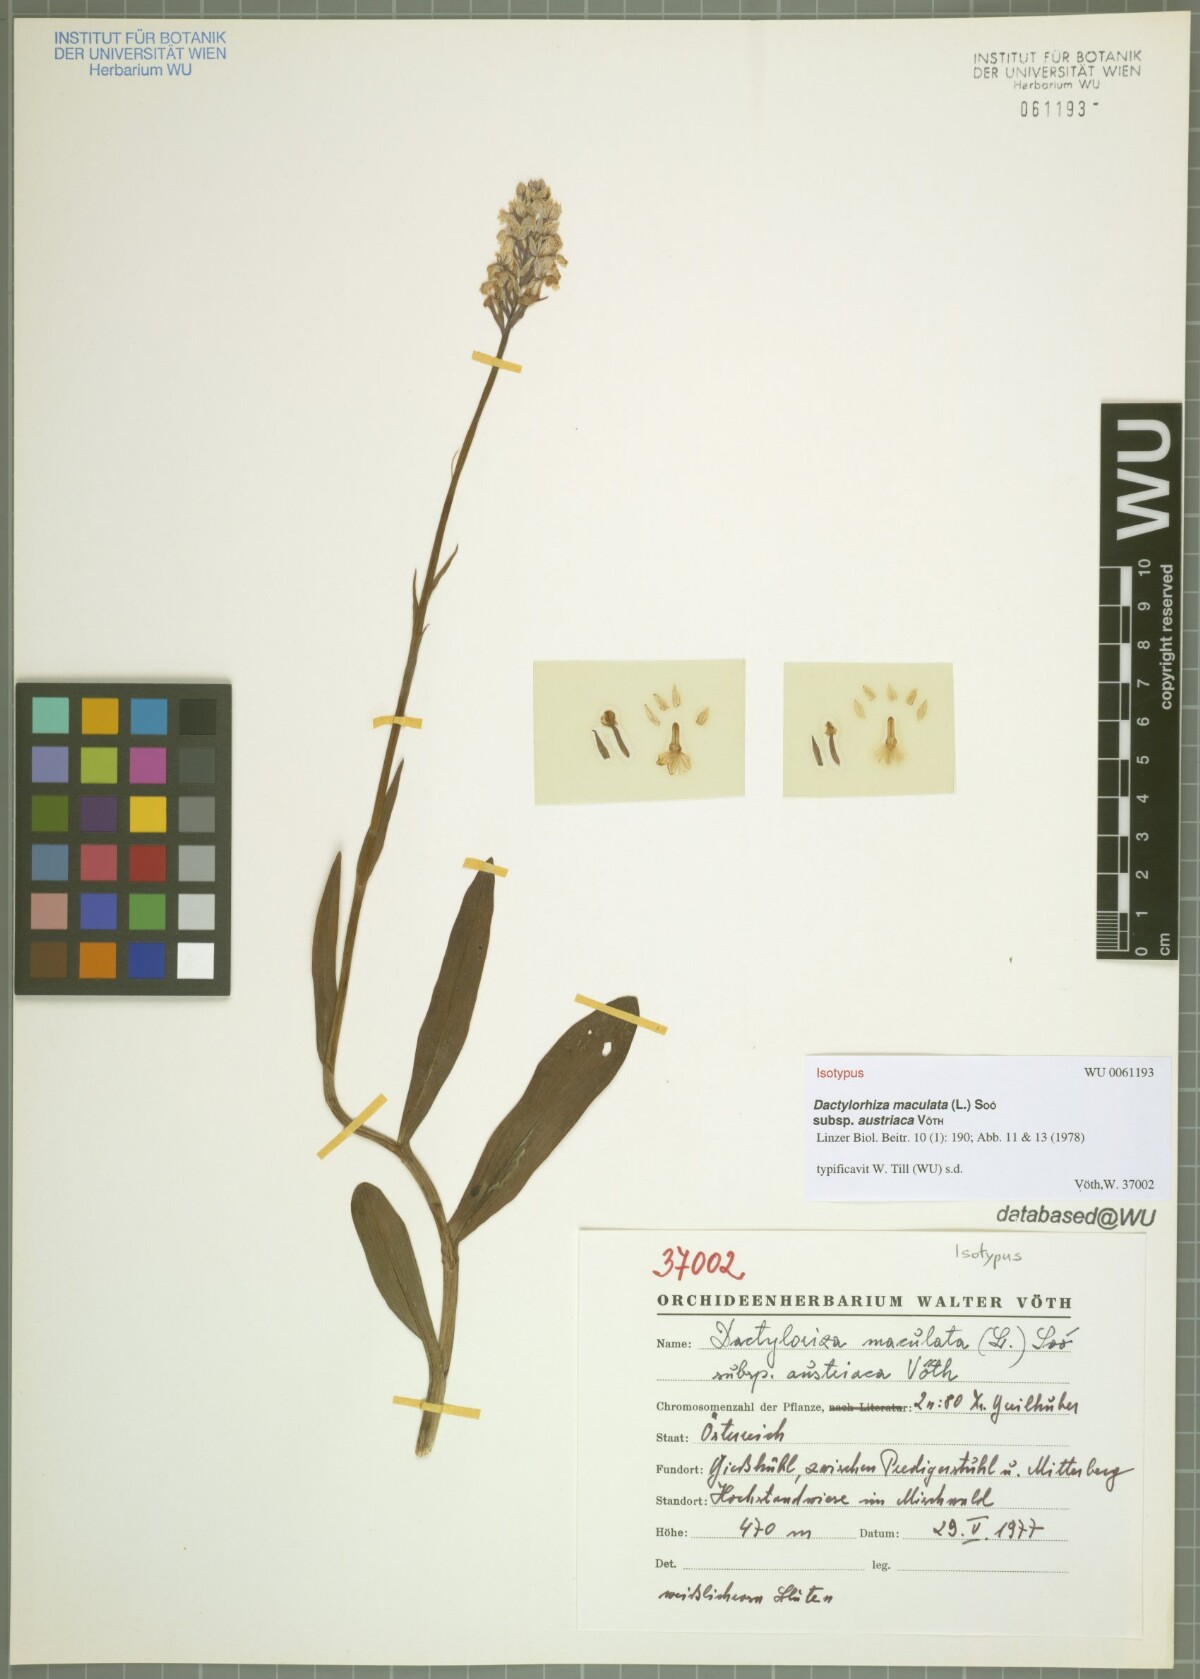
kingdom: Plantae
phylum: Tracheophyta
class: Liliopsida
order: Asparagales
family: Orchidaceae
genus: Dactylorhiza
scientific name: Dactylorhiza maculata
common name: Heath spotted-orchid
